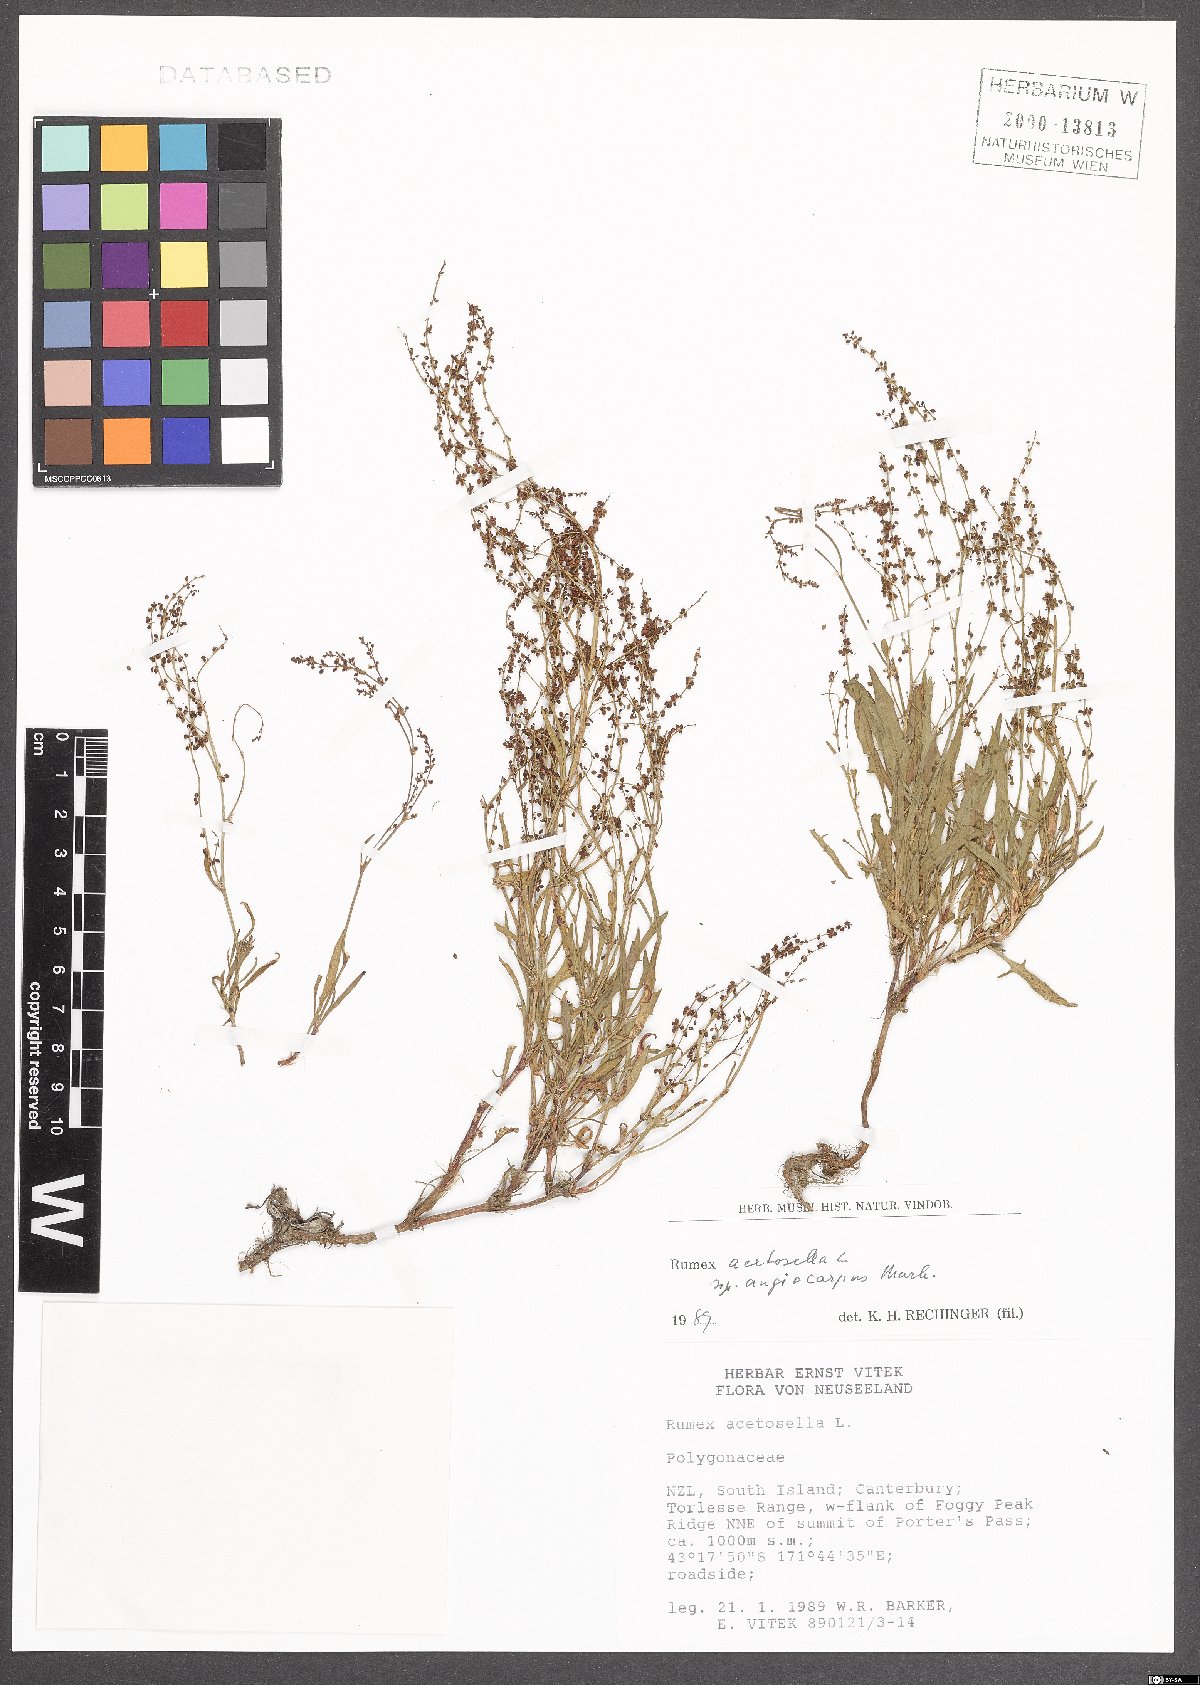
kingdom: Plantae
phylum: Tracheophyta
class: Magnoliopsida
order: Caryophyllales
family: Polygonaceae
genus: Rumex
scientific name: Rumex acetosella
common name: Common sheep sorrel
